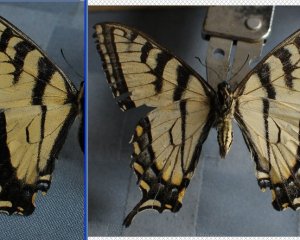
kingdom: Animalia
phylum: Arthropoda
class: Insecta
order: Lepidoptera
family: Papilionidae
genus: Pterourus
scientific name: Pterourus
